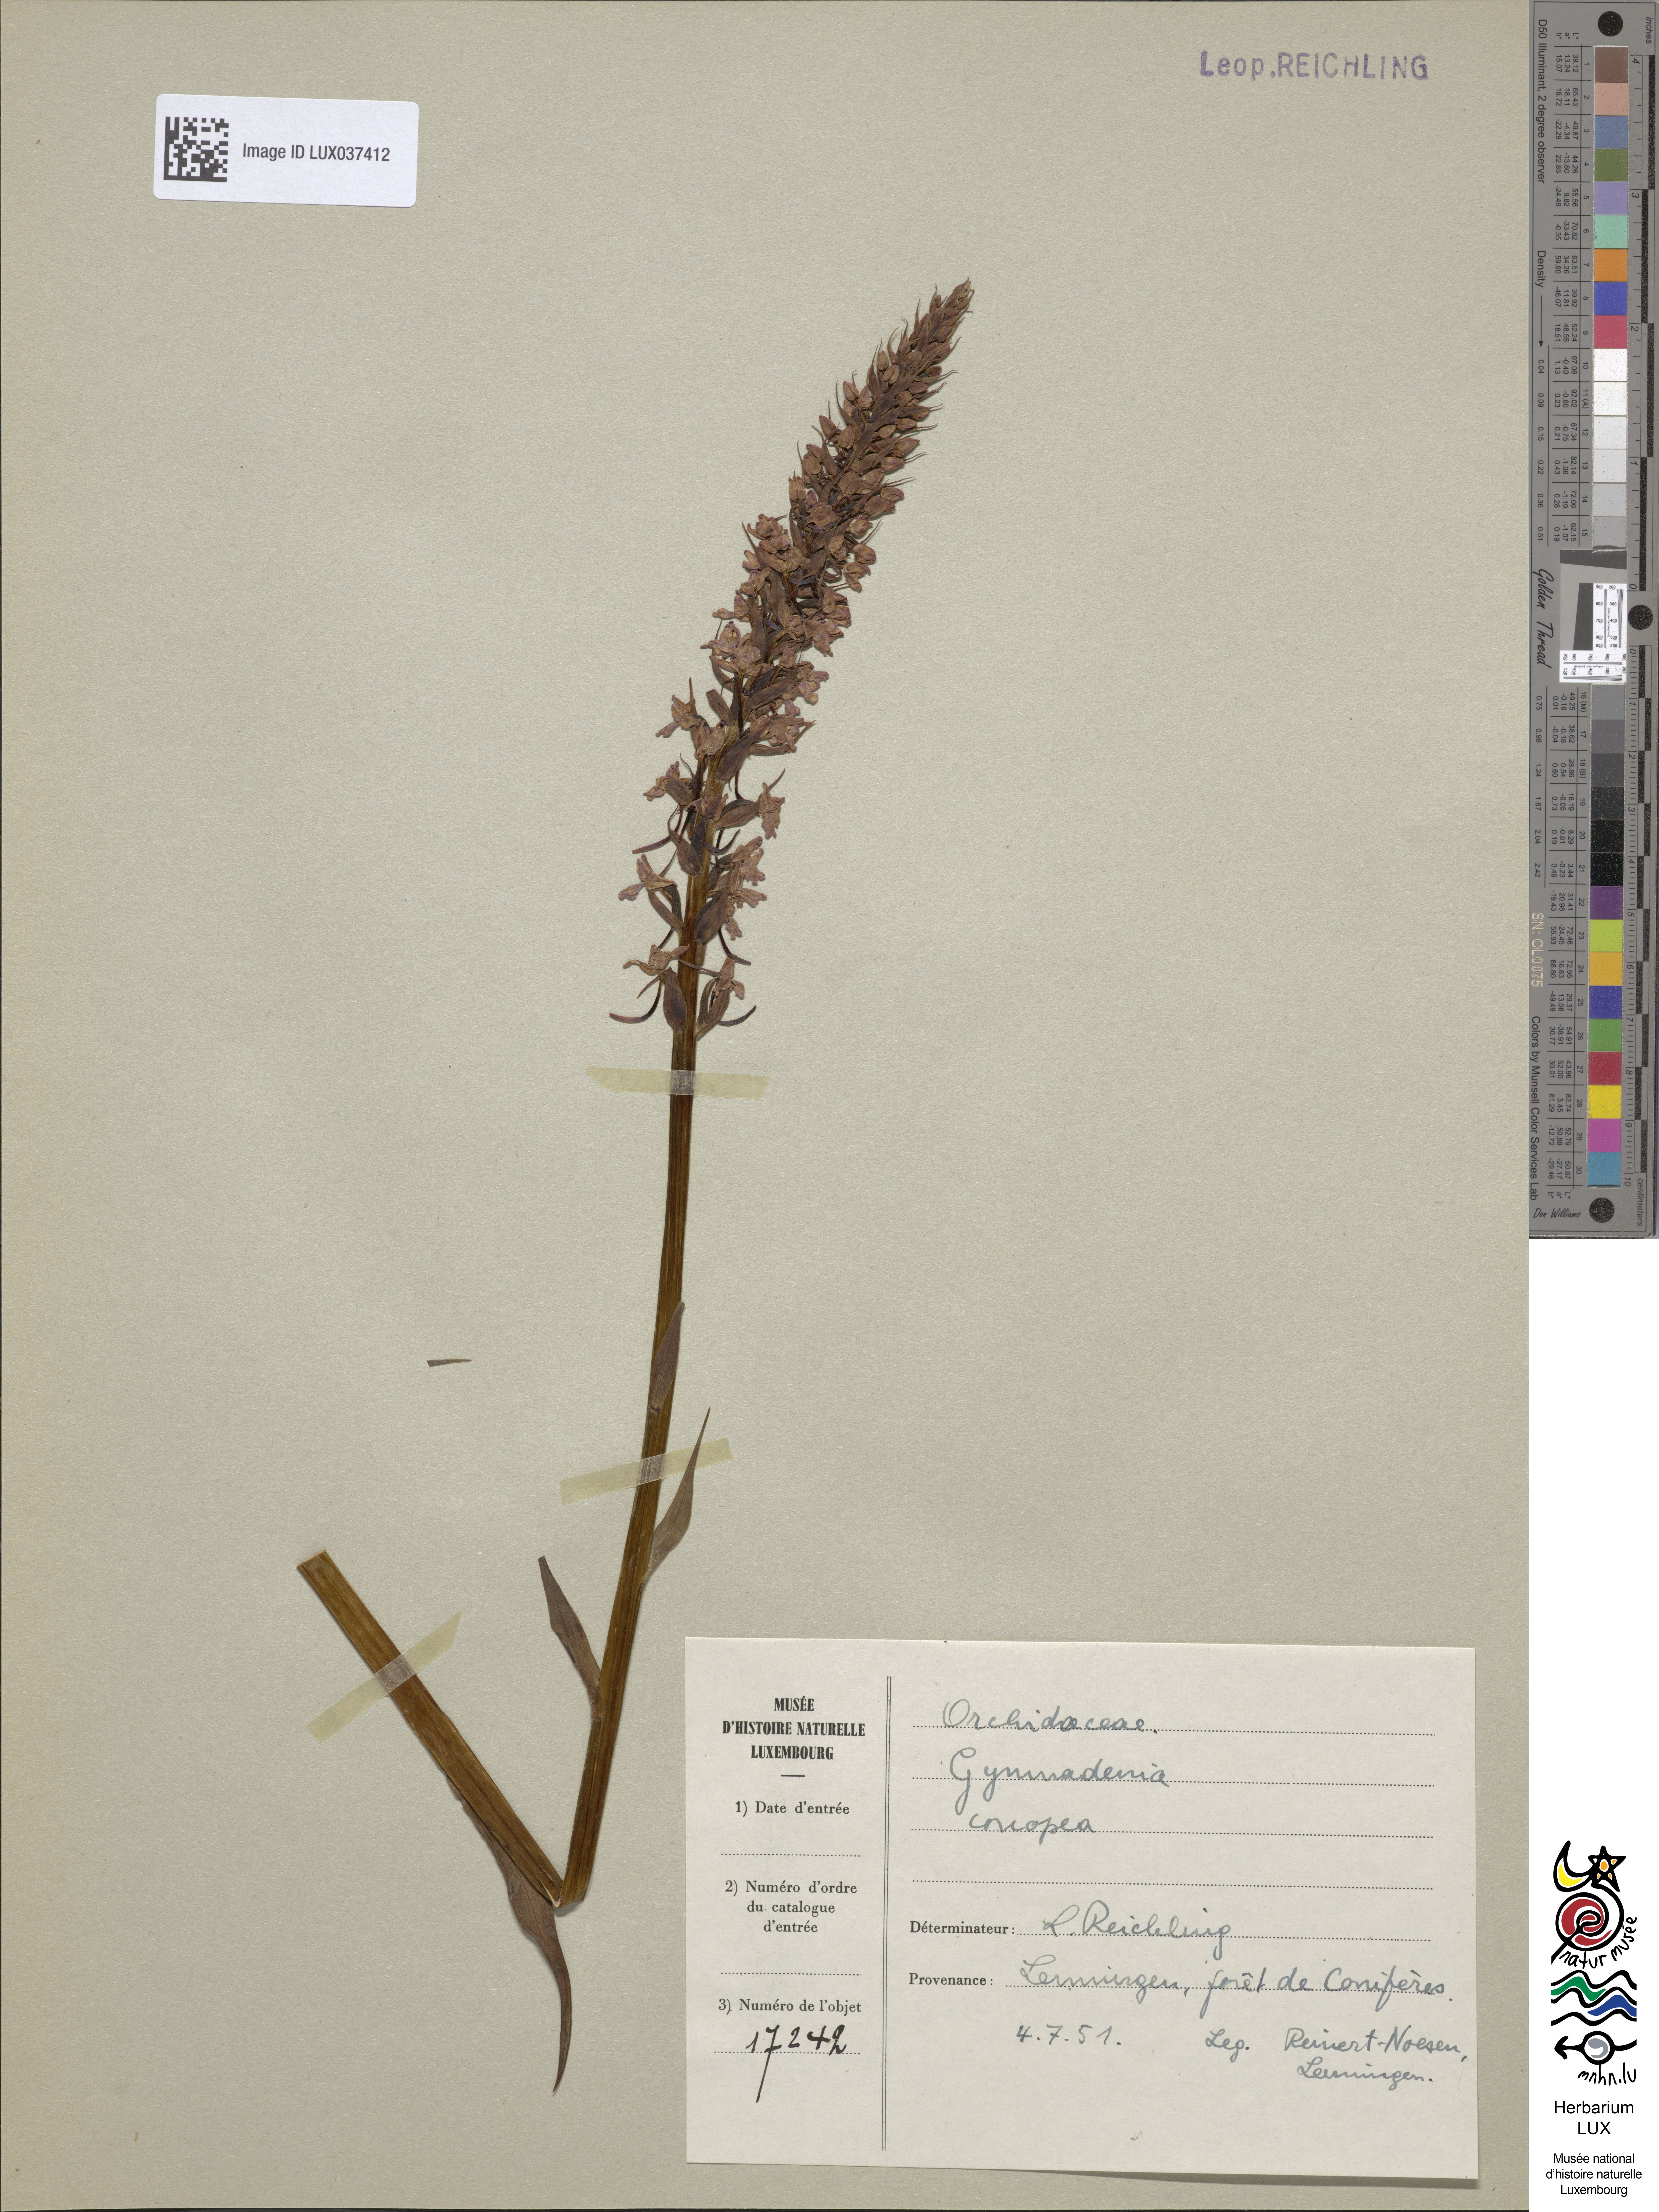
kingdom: Plantae
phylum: Tracheophyta
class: Liliopsida
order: Asparagales
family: Orchidaceae
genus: Gymnadenia
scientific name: Gymnadenia conopsea
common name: Fragrant orchid
